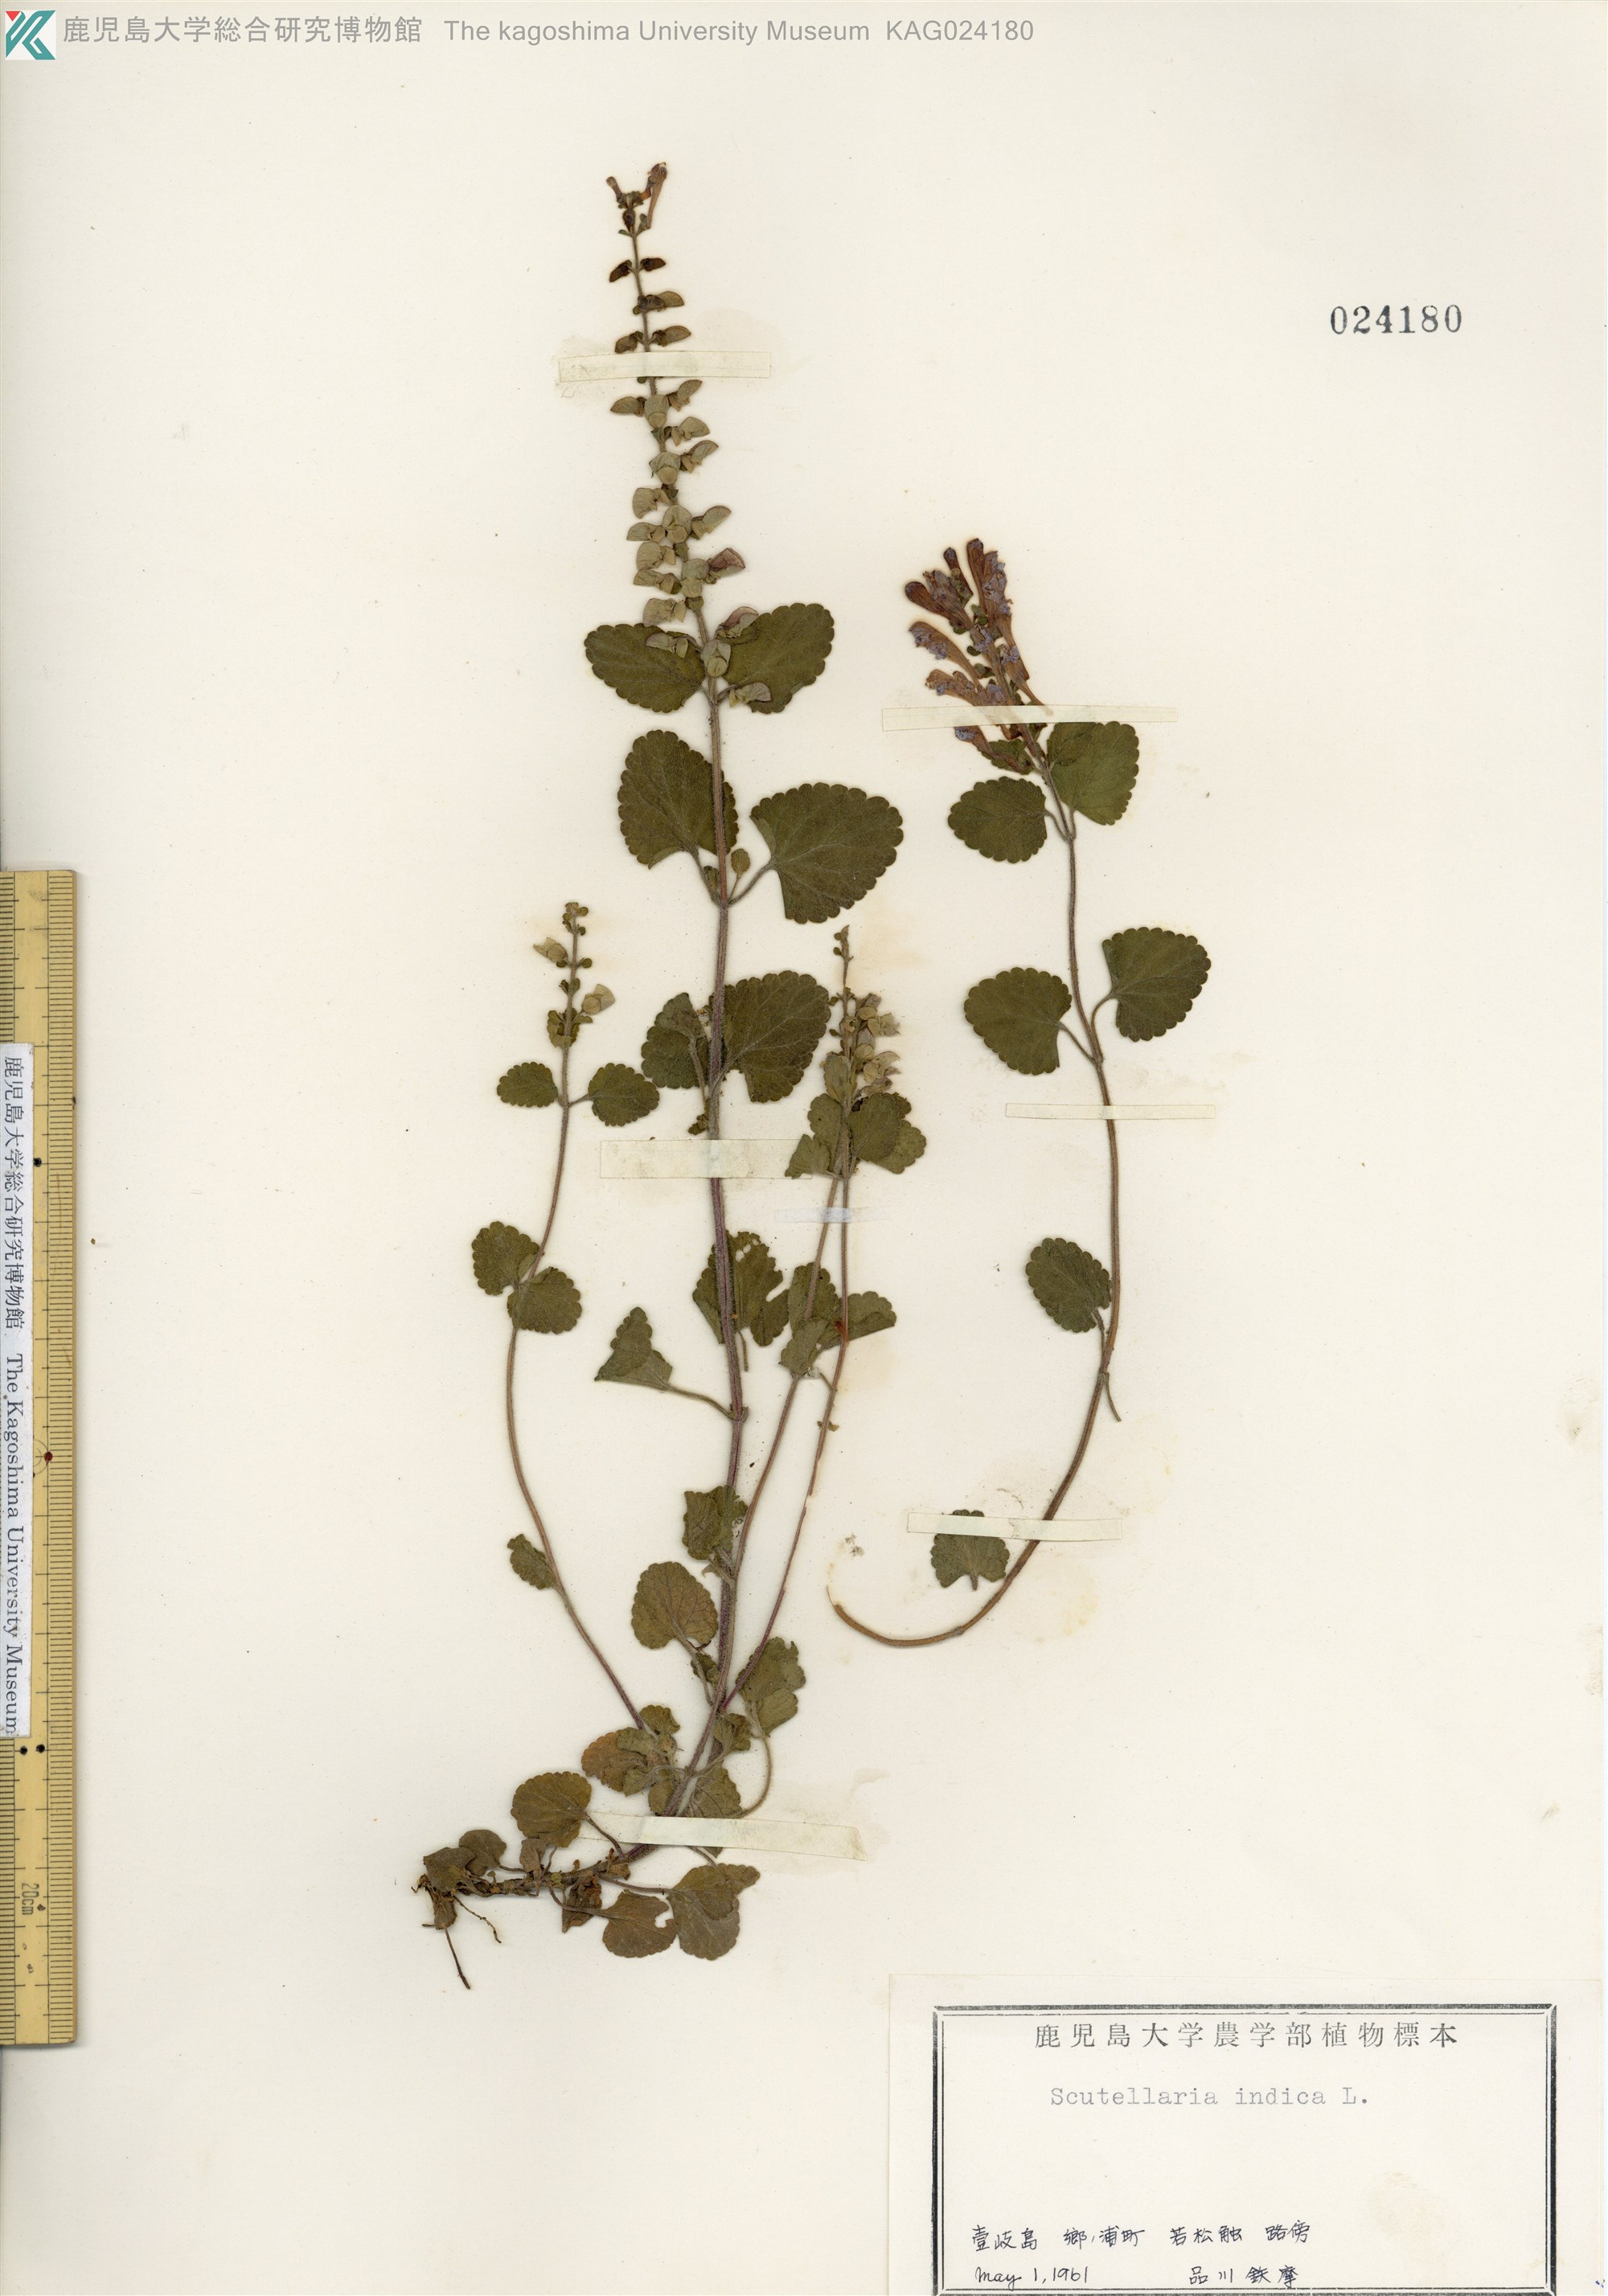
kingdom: Plantae
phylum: Tracheophyta
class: Magnoliopsida
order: Lamiales
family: Lamiaceae
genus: Scutellaria
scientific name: Scutellaria indica
